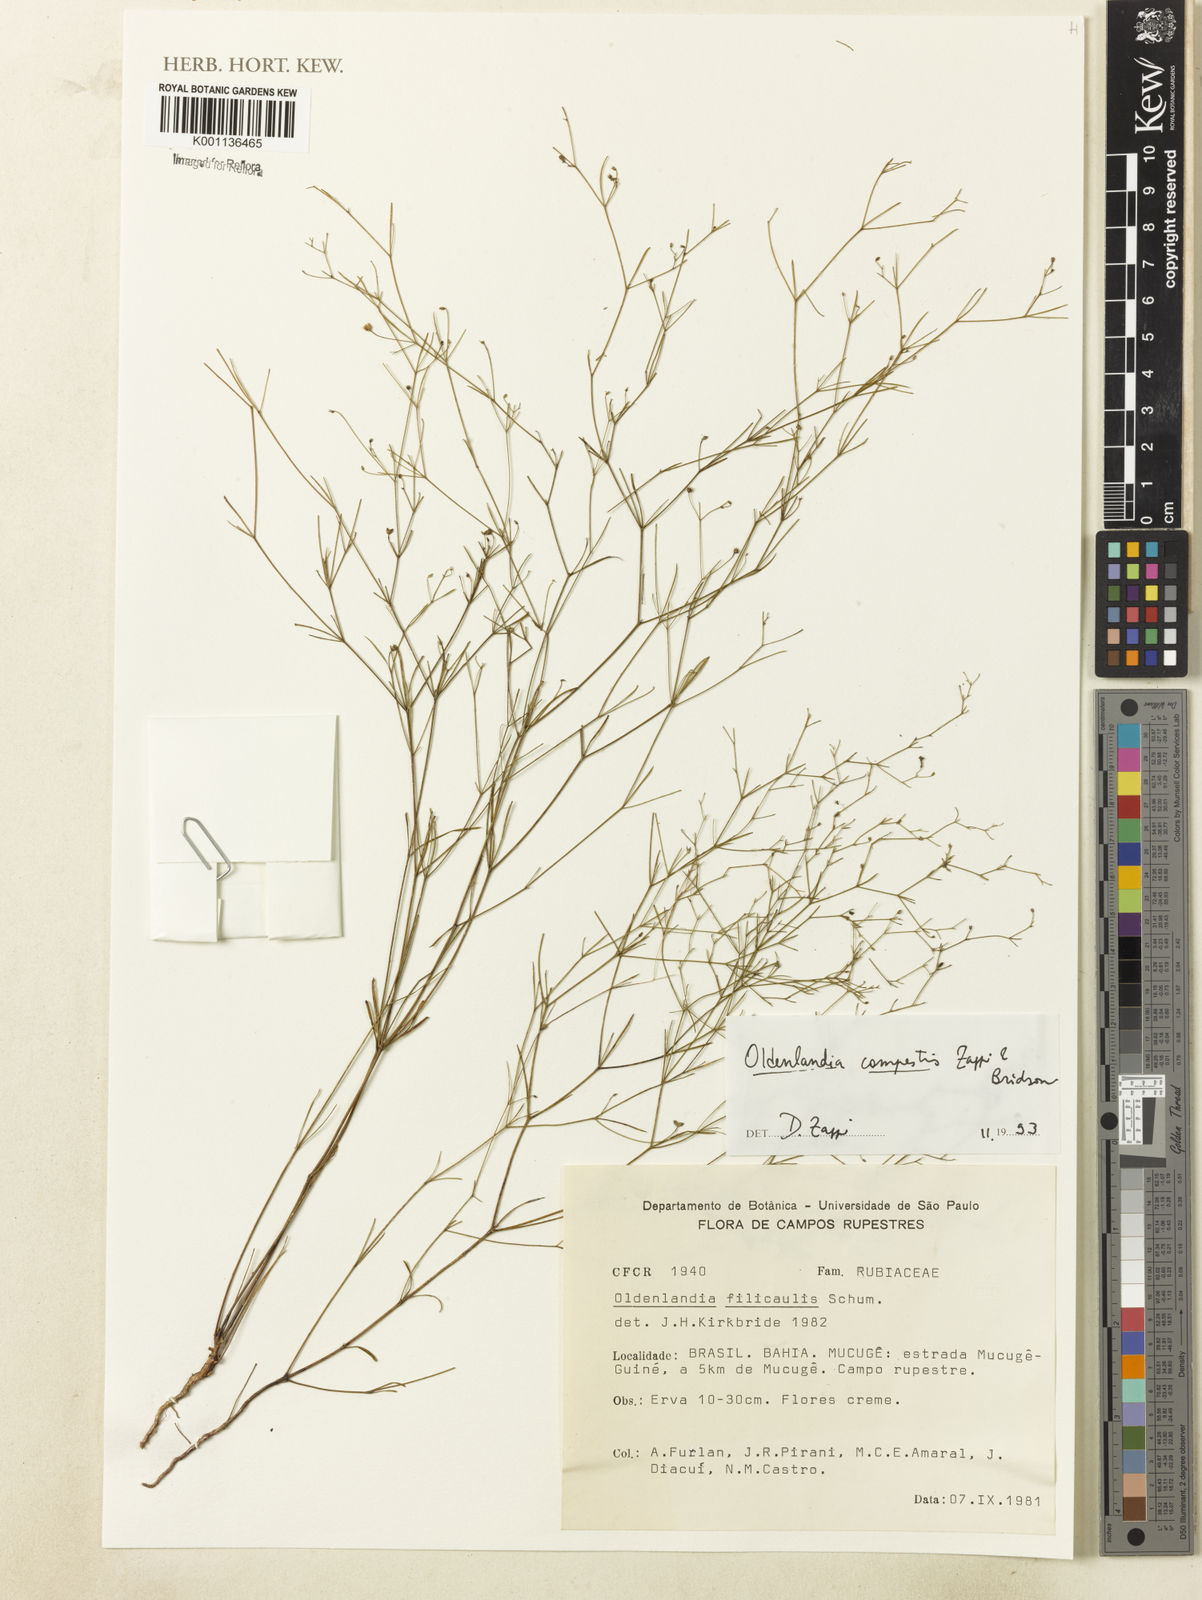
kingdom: Plantae
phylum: Tracheophyta
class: Magnoliopsida
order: Gentianales
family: Rubiaceae
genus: Oldenlandia
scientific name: Oldenlandia
